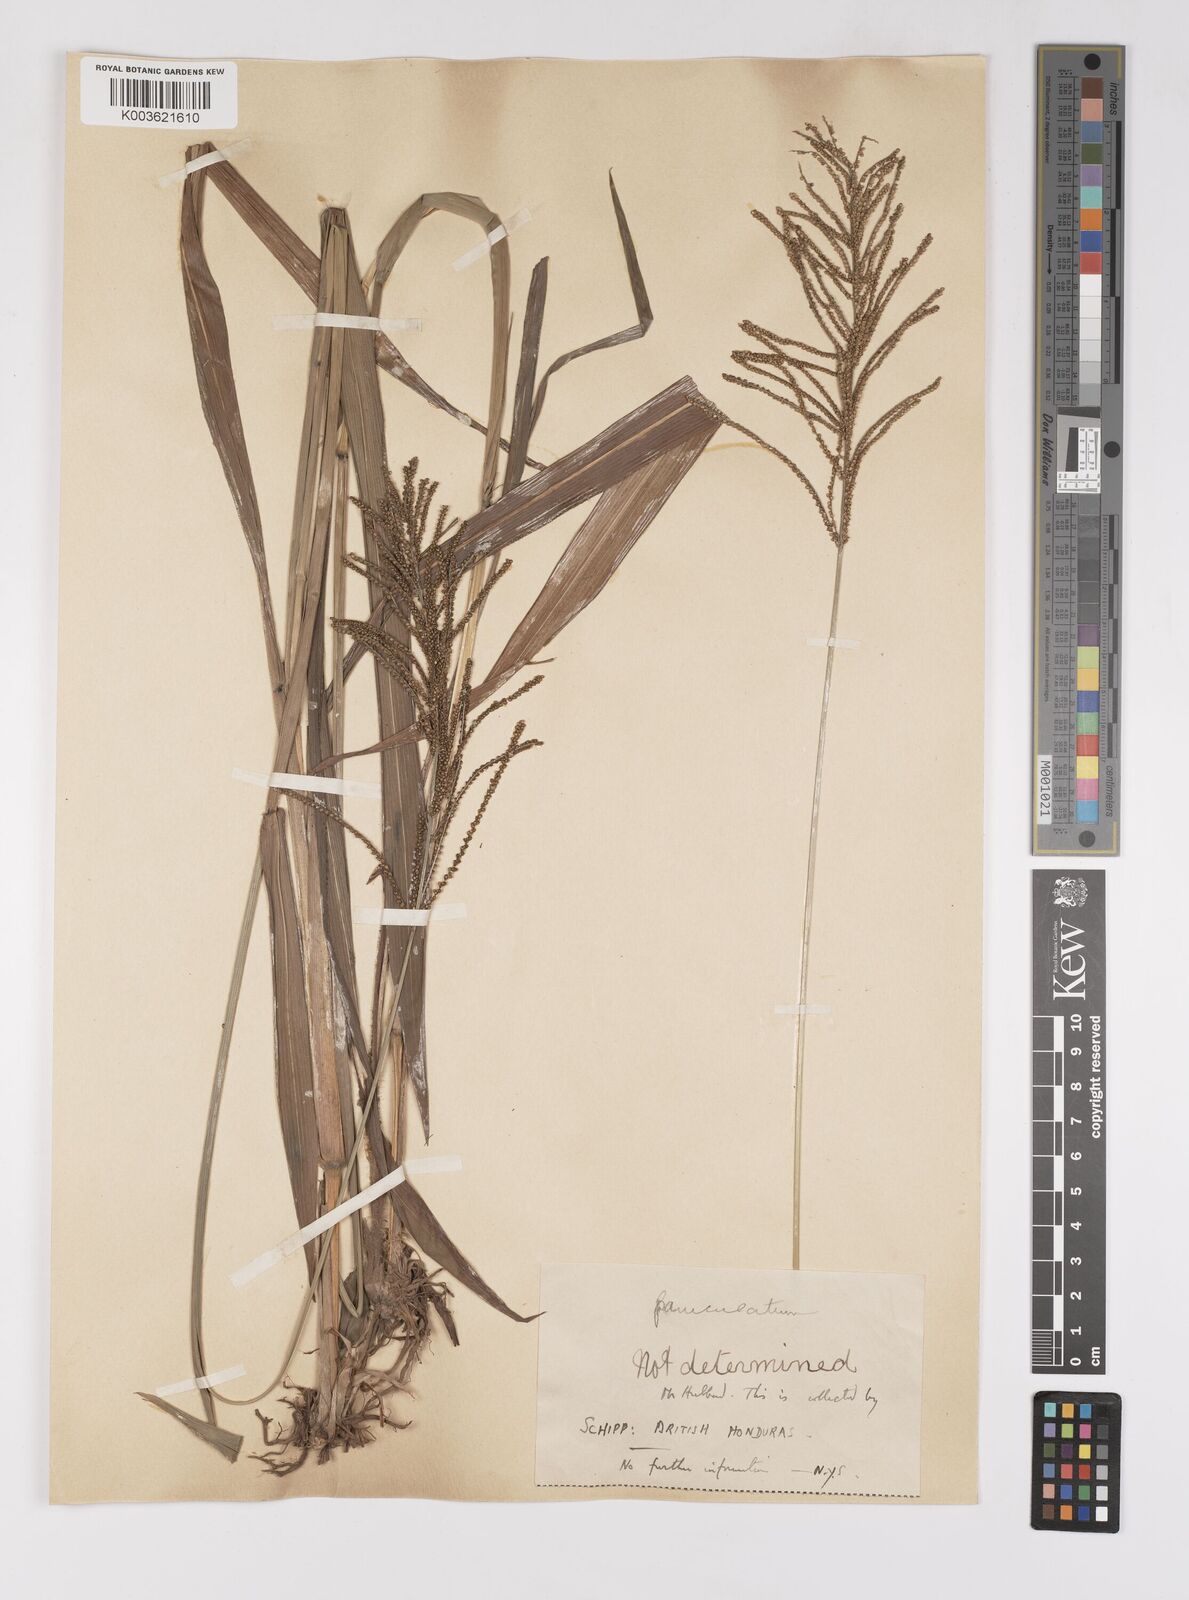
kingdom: Plantae
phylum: Tracheophyta
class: Liliopsida
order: Poales
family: Poaceae
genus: Paspalum
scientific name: Paspalum paniculatum
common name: Arrocillo
